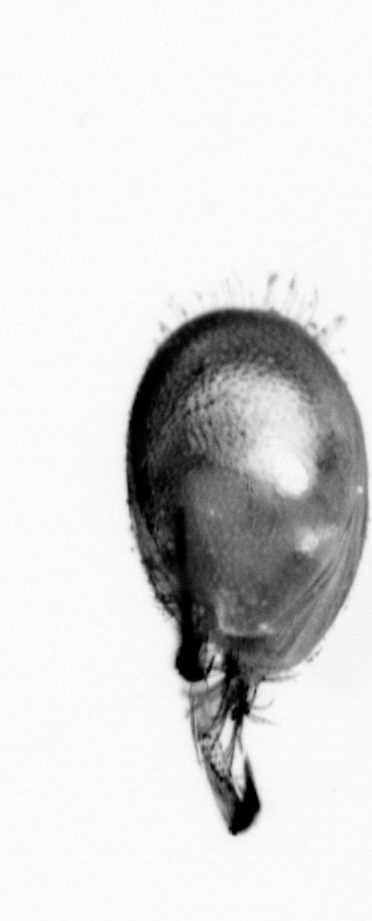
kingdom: Animalia
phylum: Annelida
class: Polychaeta
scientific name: Polychaeta
